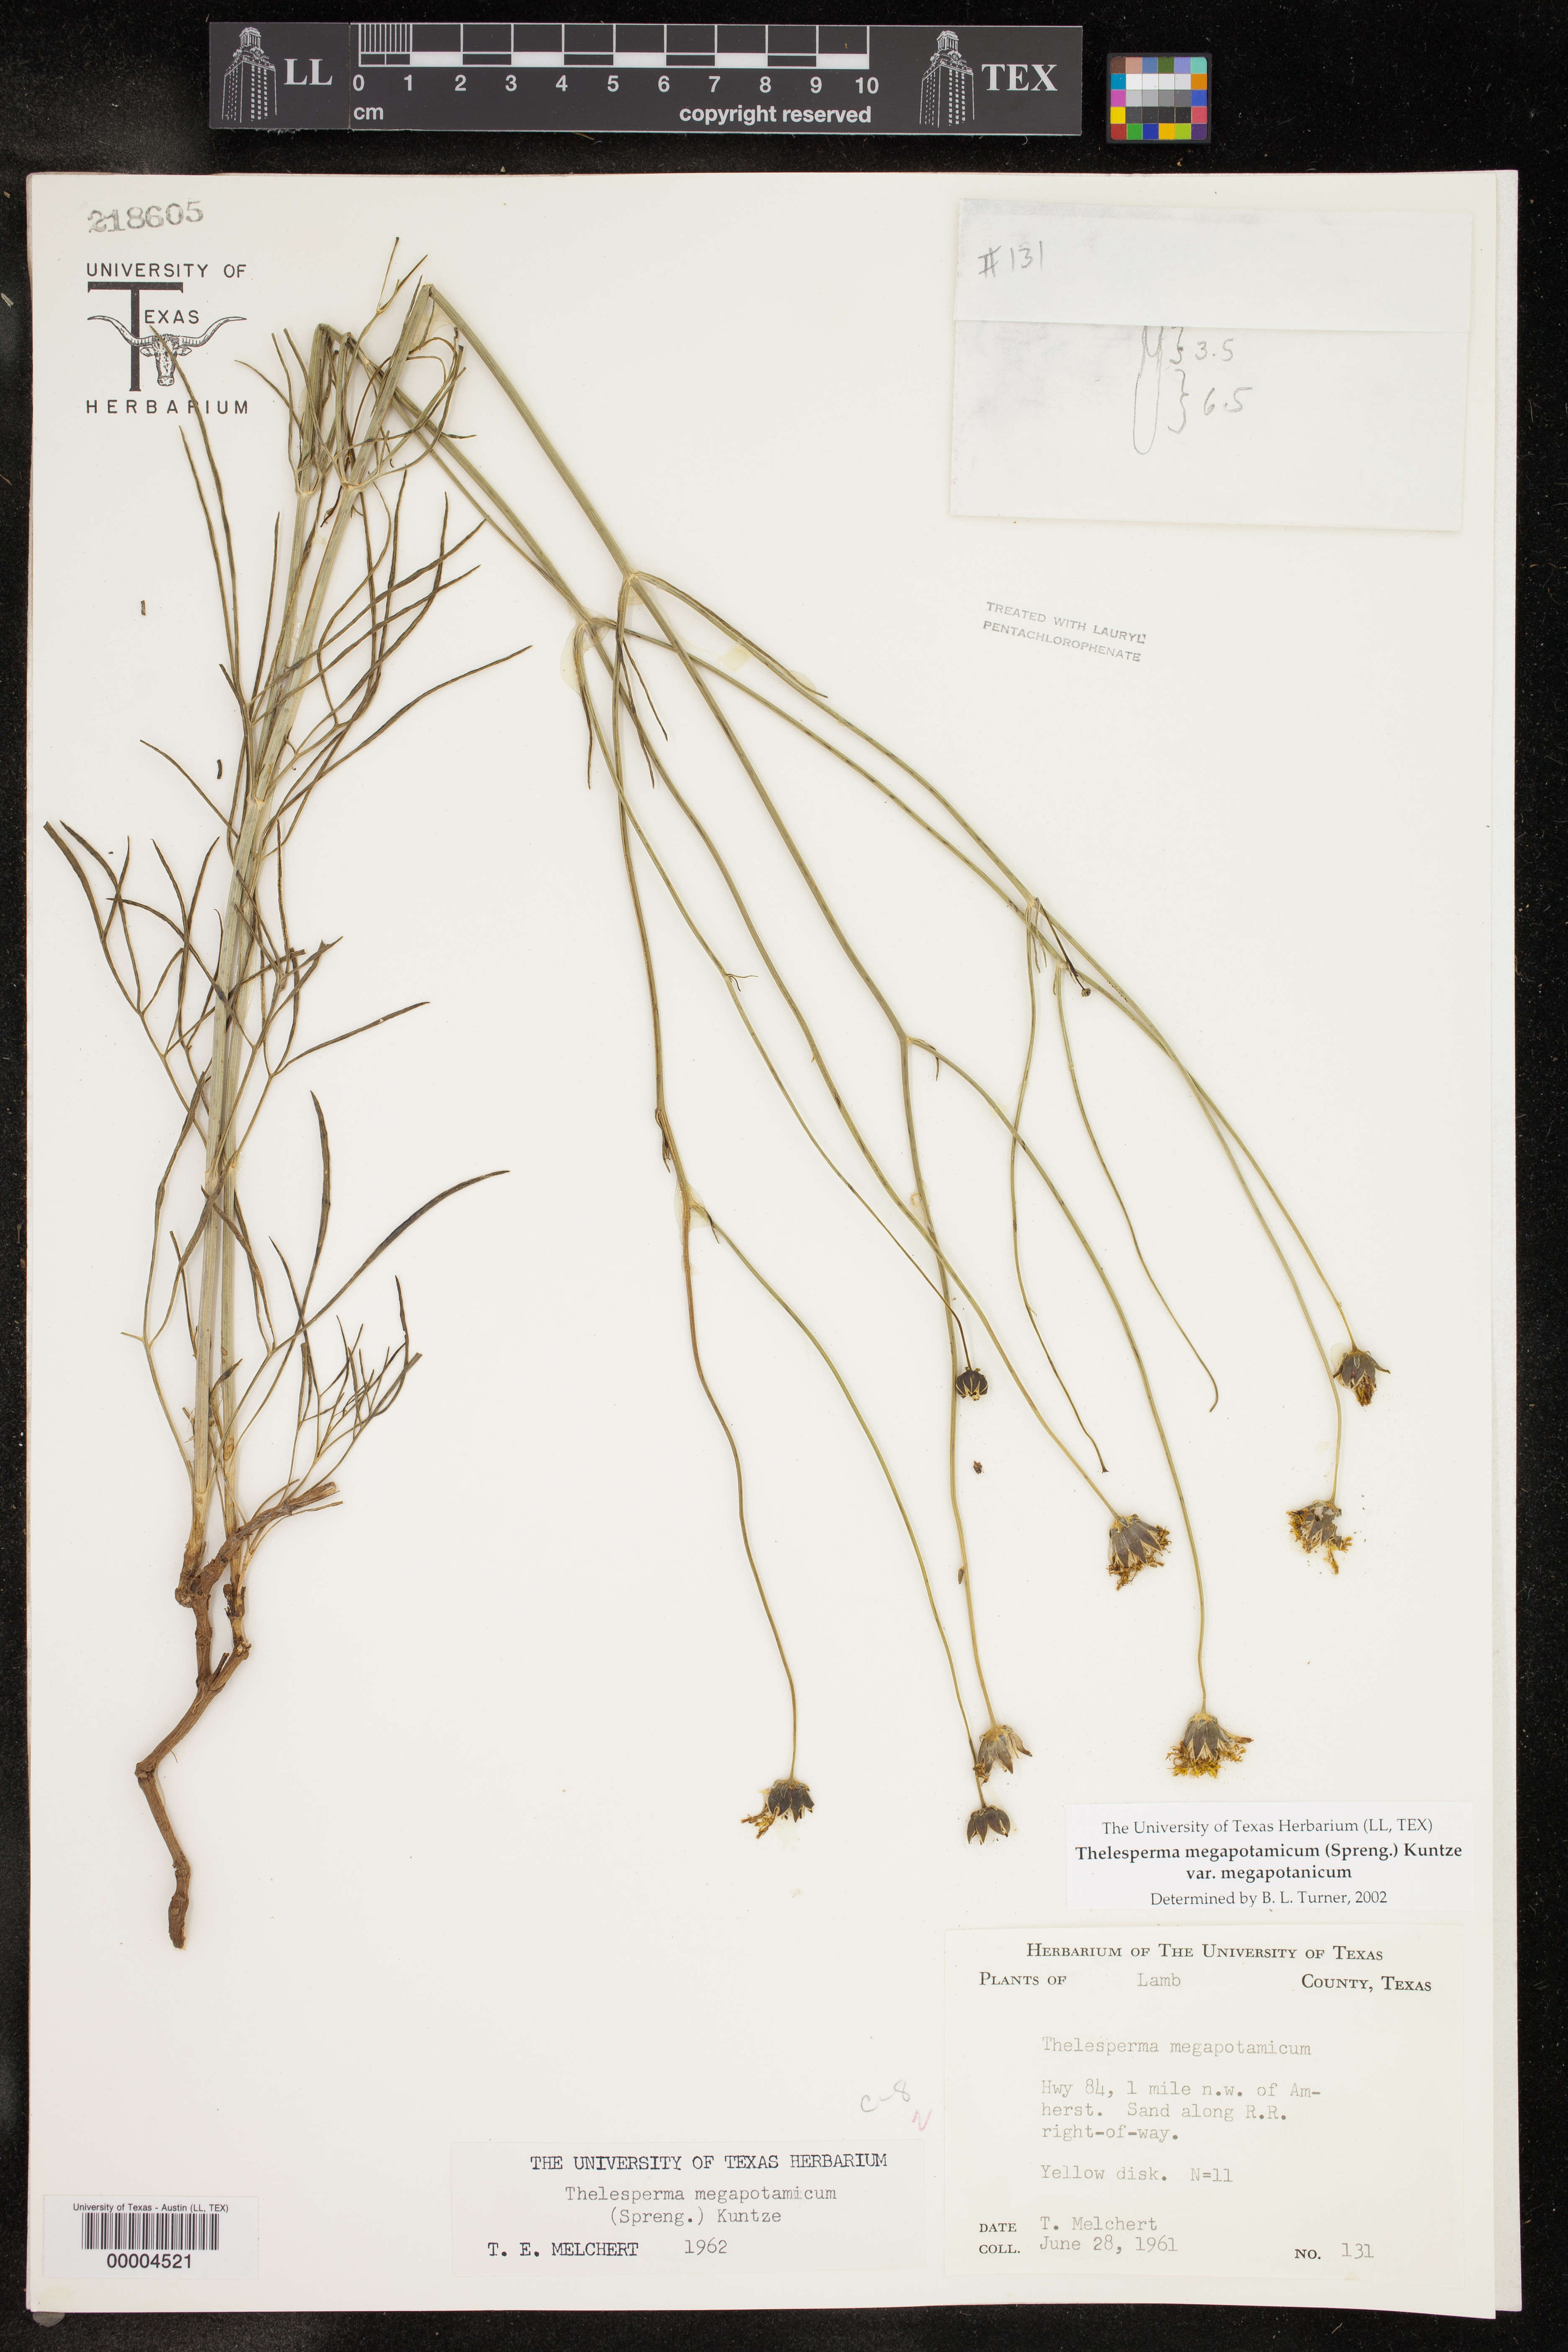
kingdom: Plantae
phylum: Tracheophyta
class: Magnoliopsida
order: Asterales
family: Asteraceae
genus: Thelesperma
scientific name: Thelesperma megapotamicum
